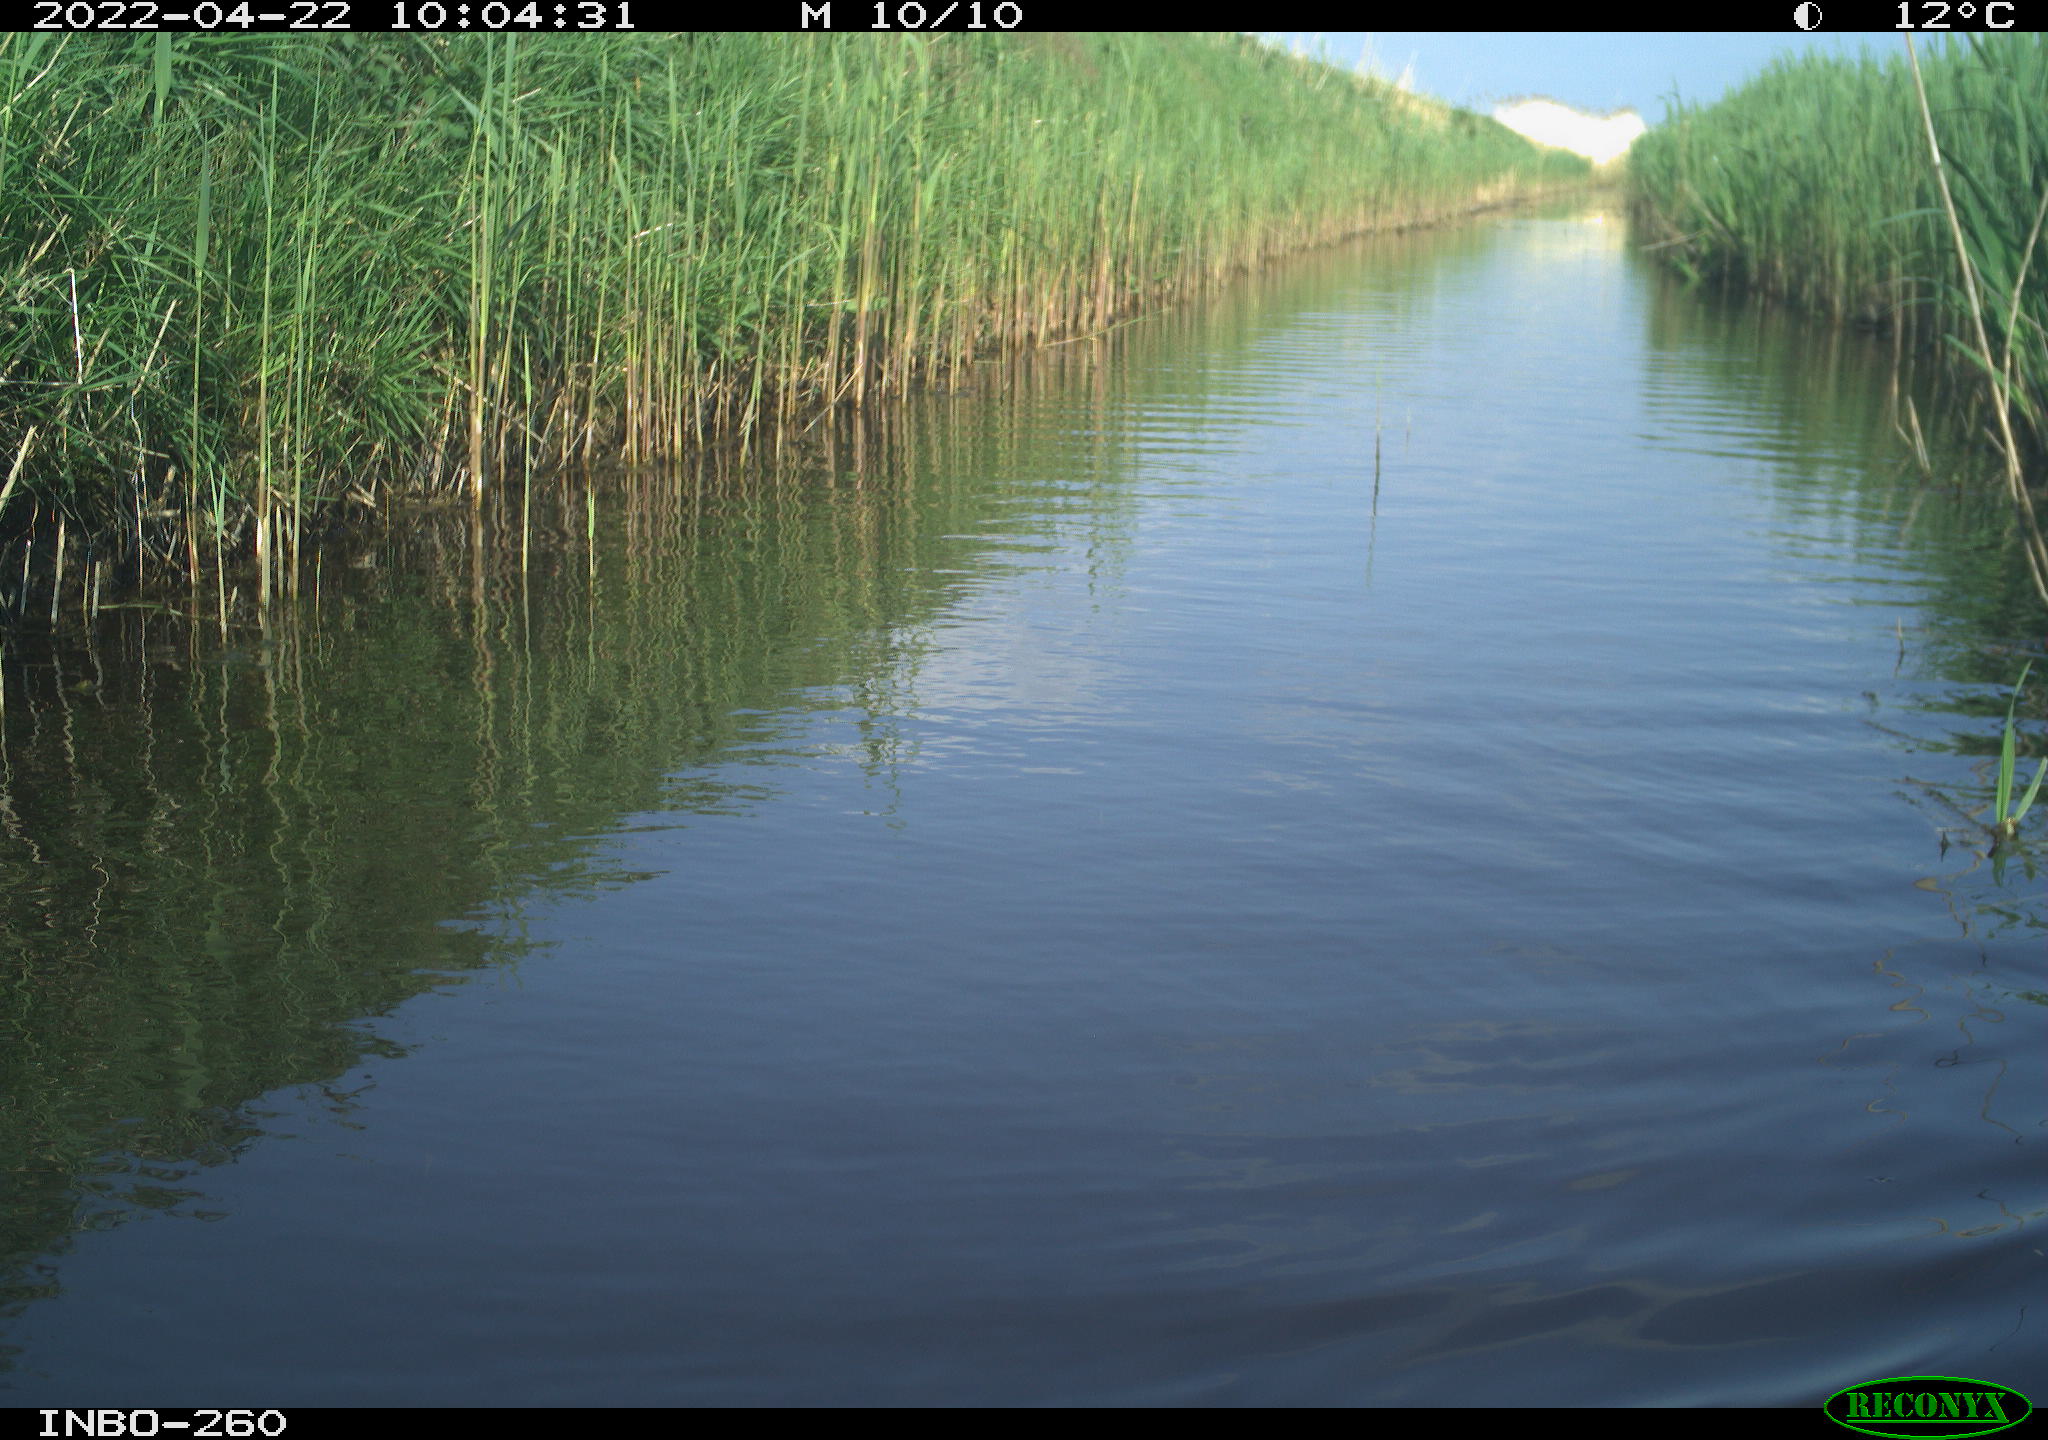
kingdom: Animalia
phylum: Chordata
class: Aves
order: Gruiformes
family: Rallidae
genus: Fulica
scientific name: Fulica atra
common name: Eurasian coot
